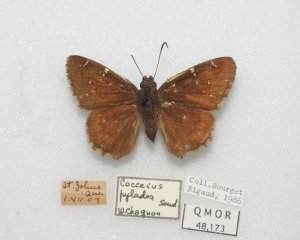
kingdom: Animalia
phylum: Arthropoda
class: Insecta
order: Lepidoptera
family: Hesperiidae
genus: Autochton
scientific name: Autochton
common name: Northern Cloudywing
